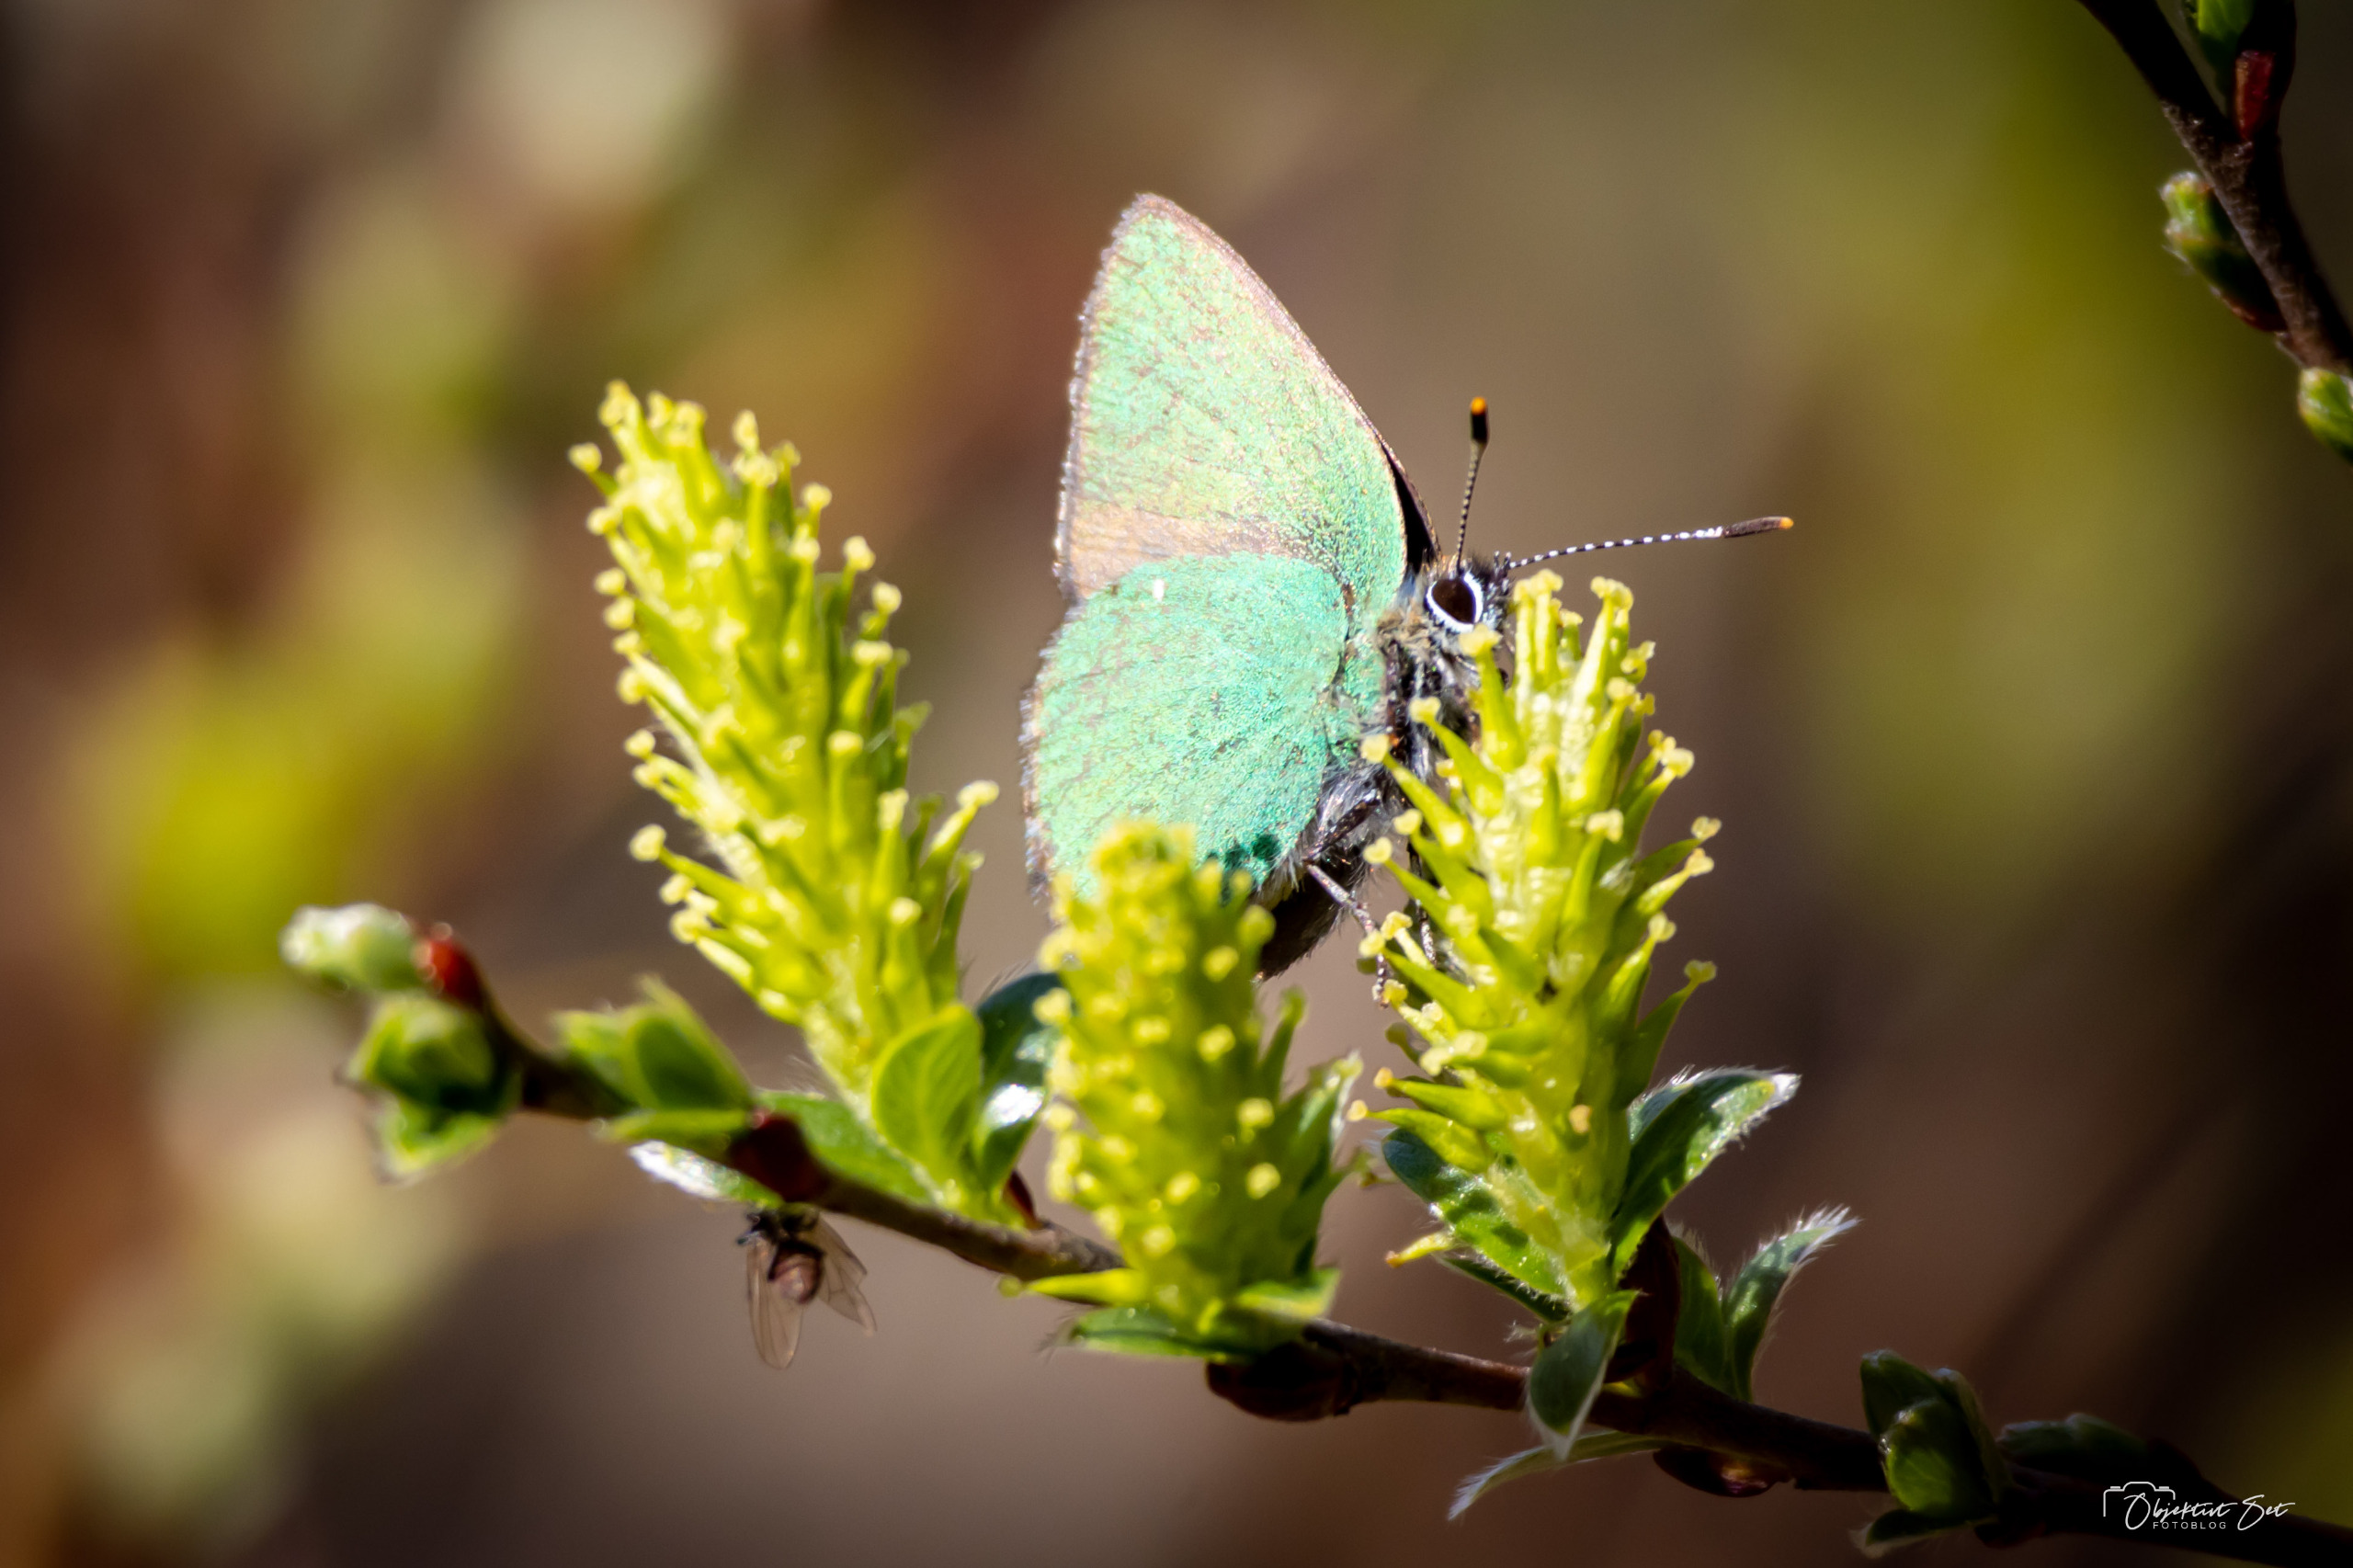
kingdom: Animalia
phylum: Arthropoda
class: Insecta
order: Lepidoptera
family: Lycaenidae
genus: Callophrys
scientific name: Callophrys rubi
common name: Grøn busksommerfugl
